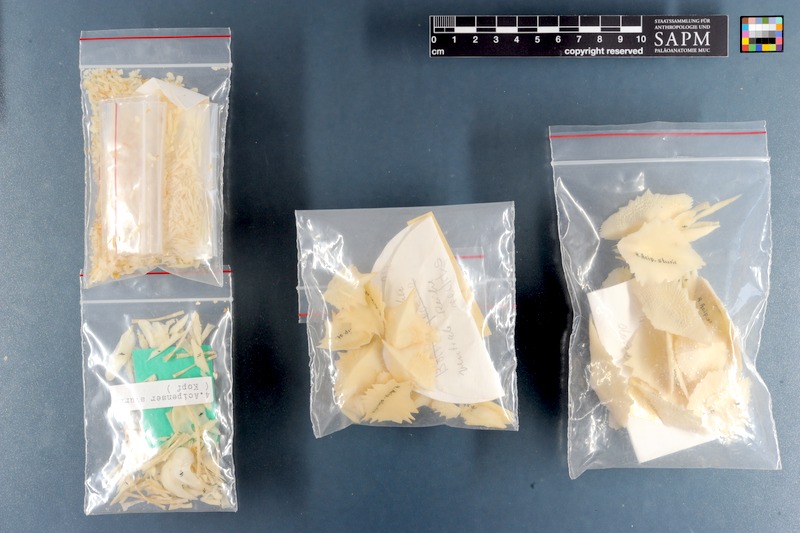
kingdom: Animalia
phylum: Chordata
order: Acipenseriformes
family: Acipenseridae
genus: Acipenser
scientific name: Acipenser sturio
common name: Sturgeon
